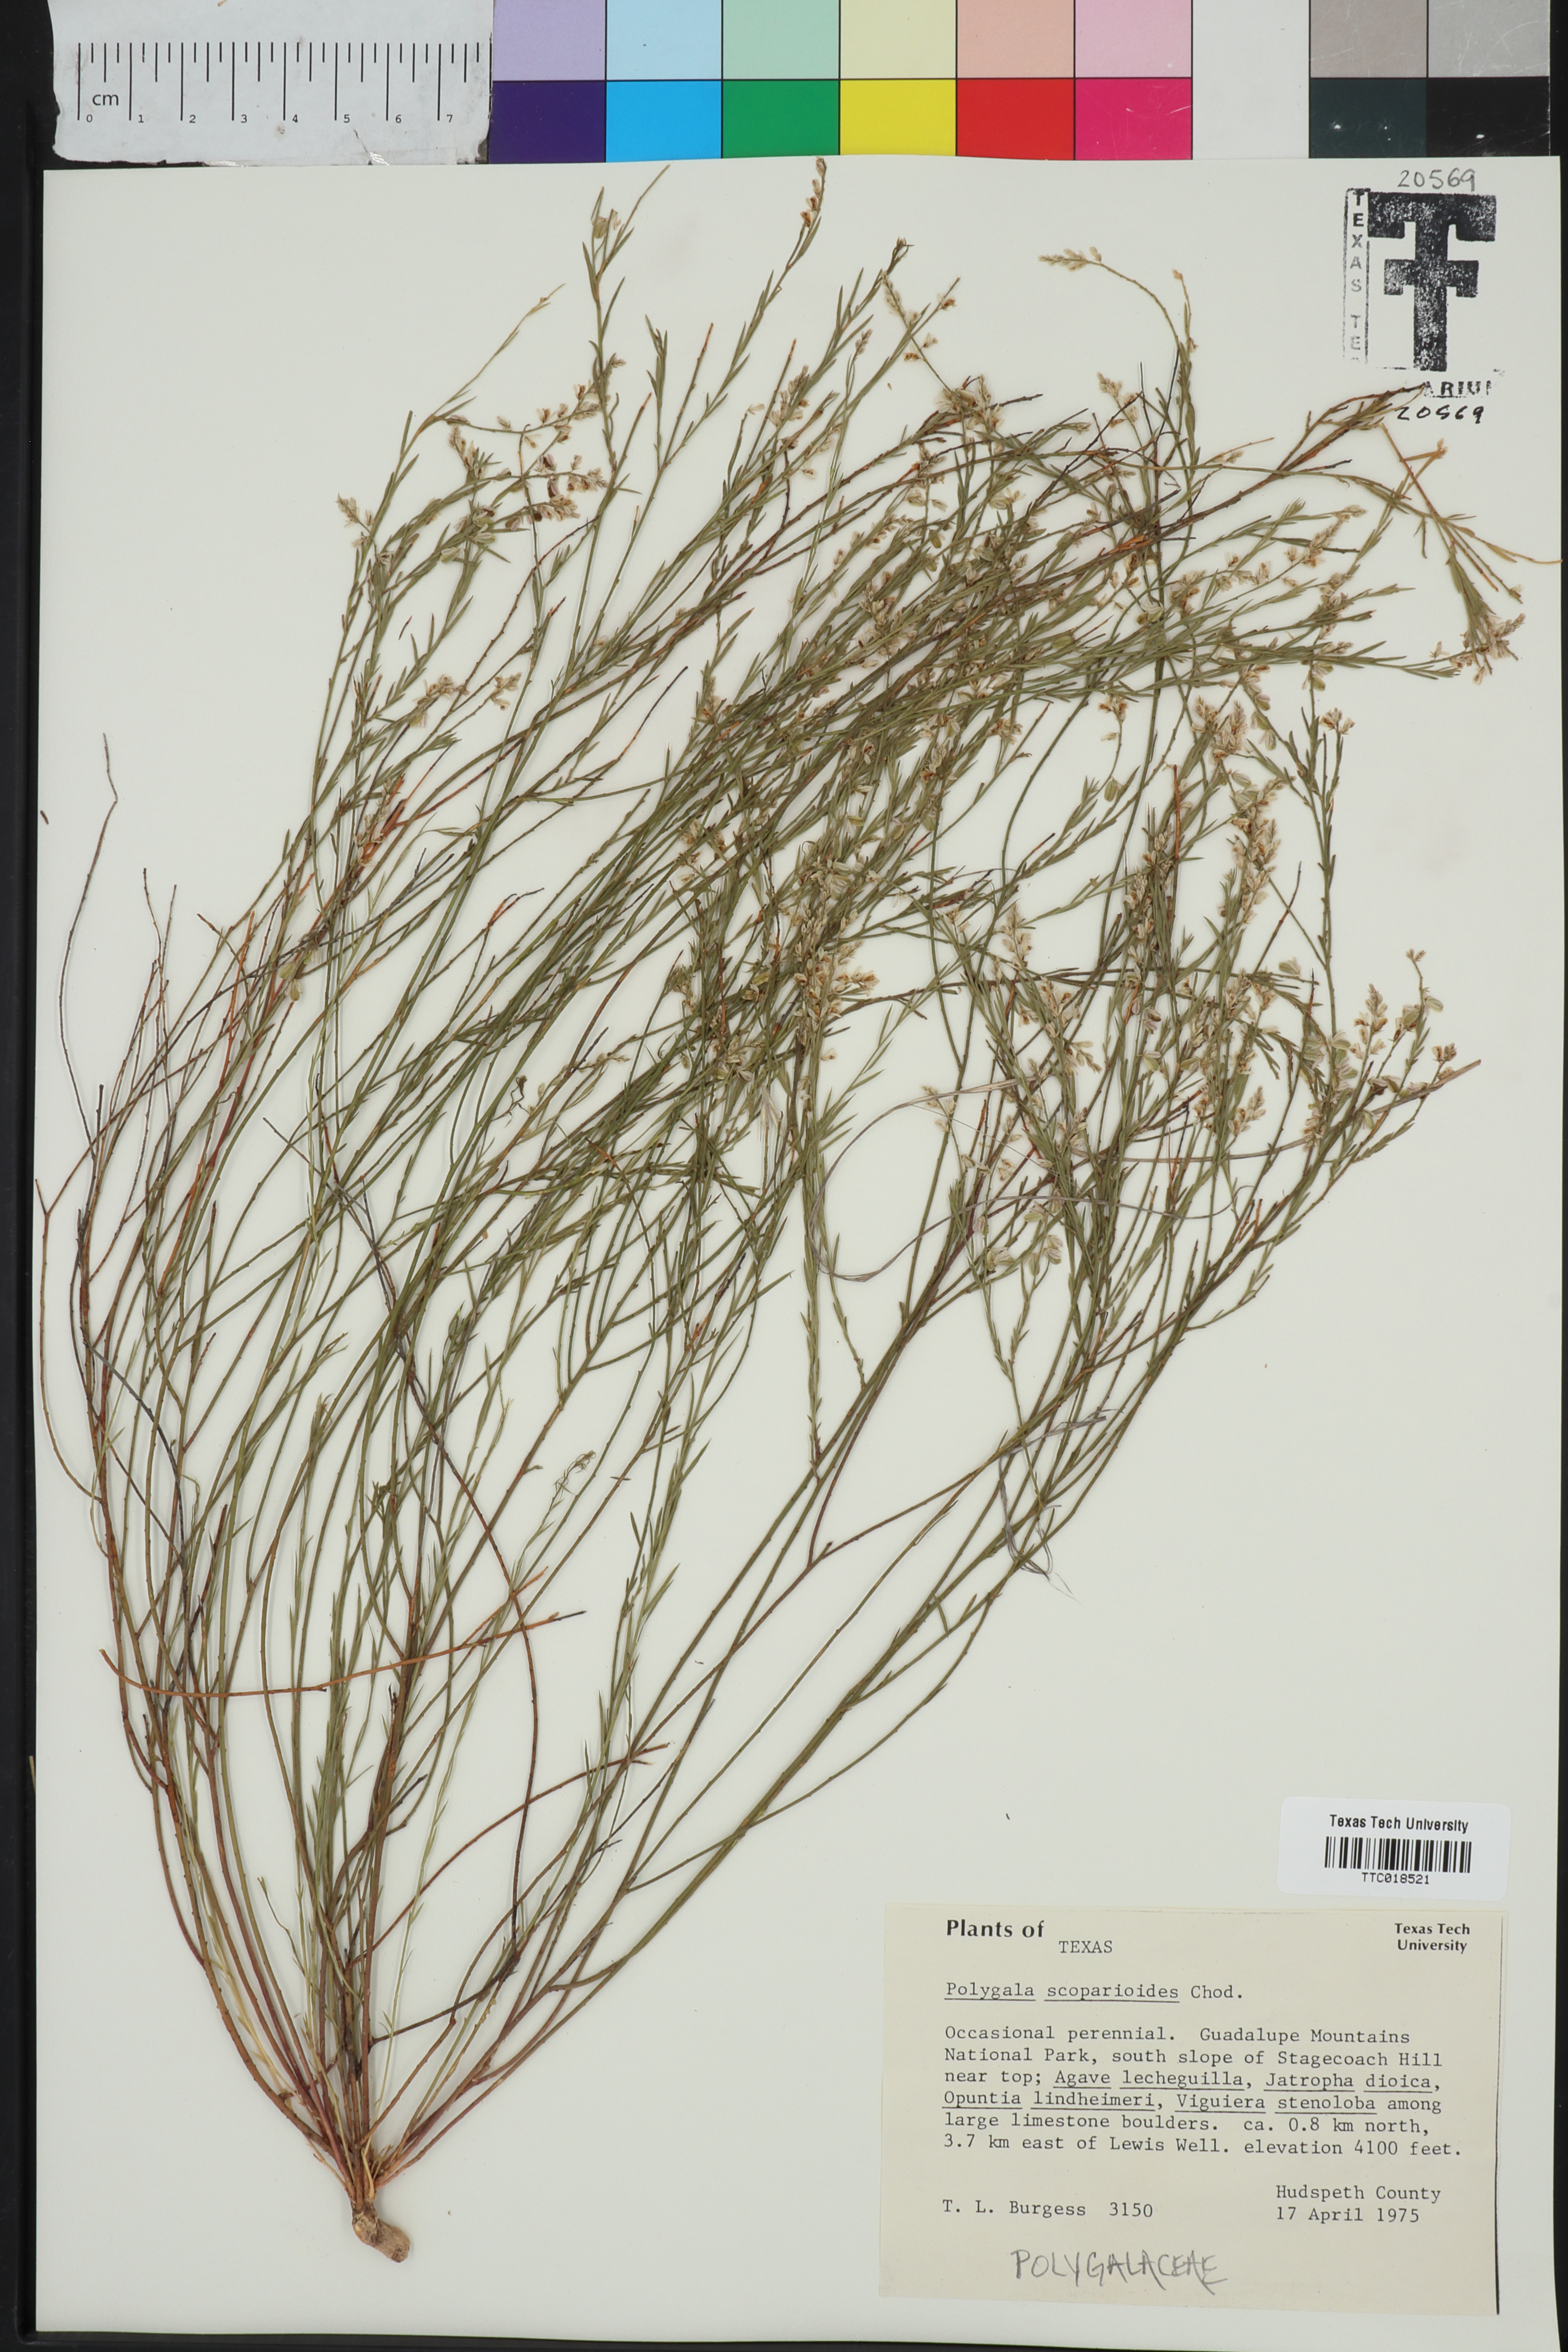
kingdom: Plantae
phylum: Tracheophyta
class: Magnoliopsida
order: Fabales
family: Polygalaceae
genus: Polygala
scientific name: Polygala scoparioides
